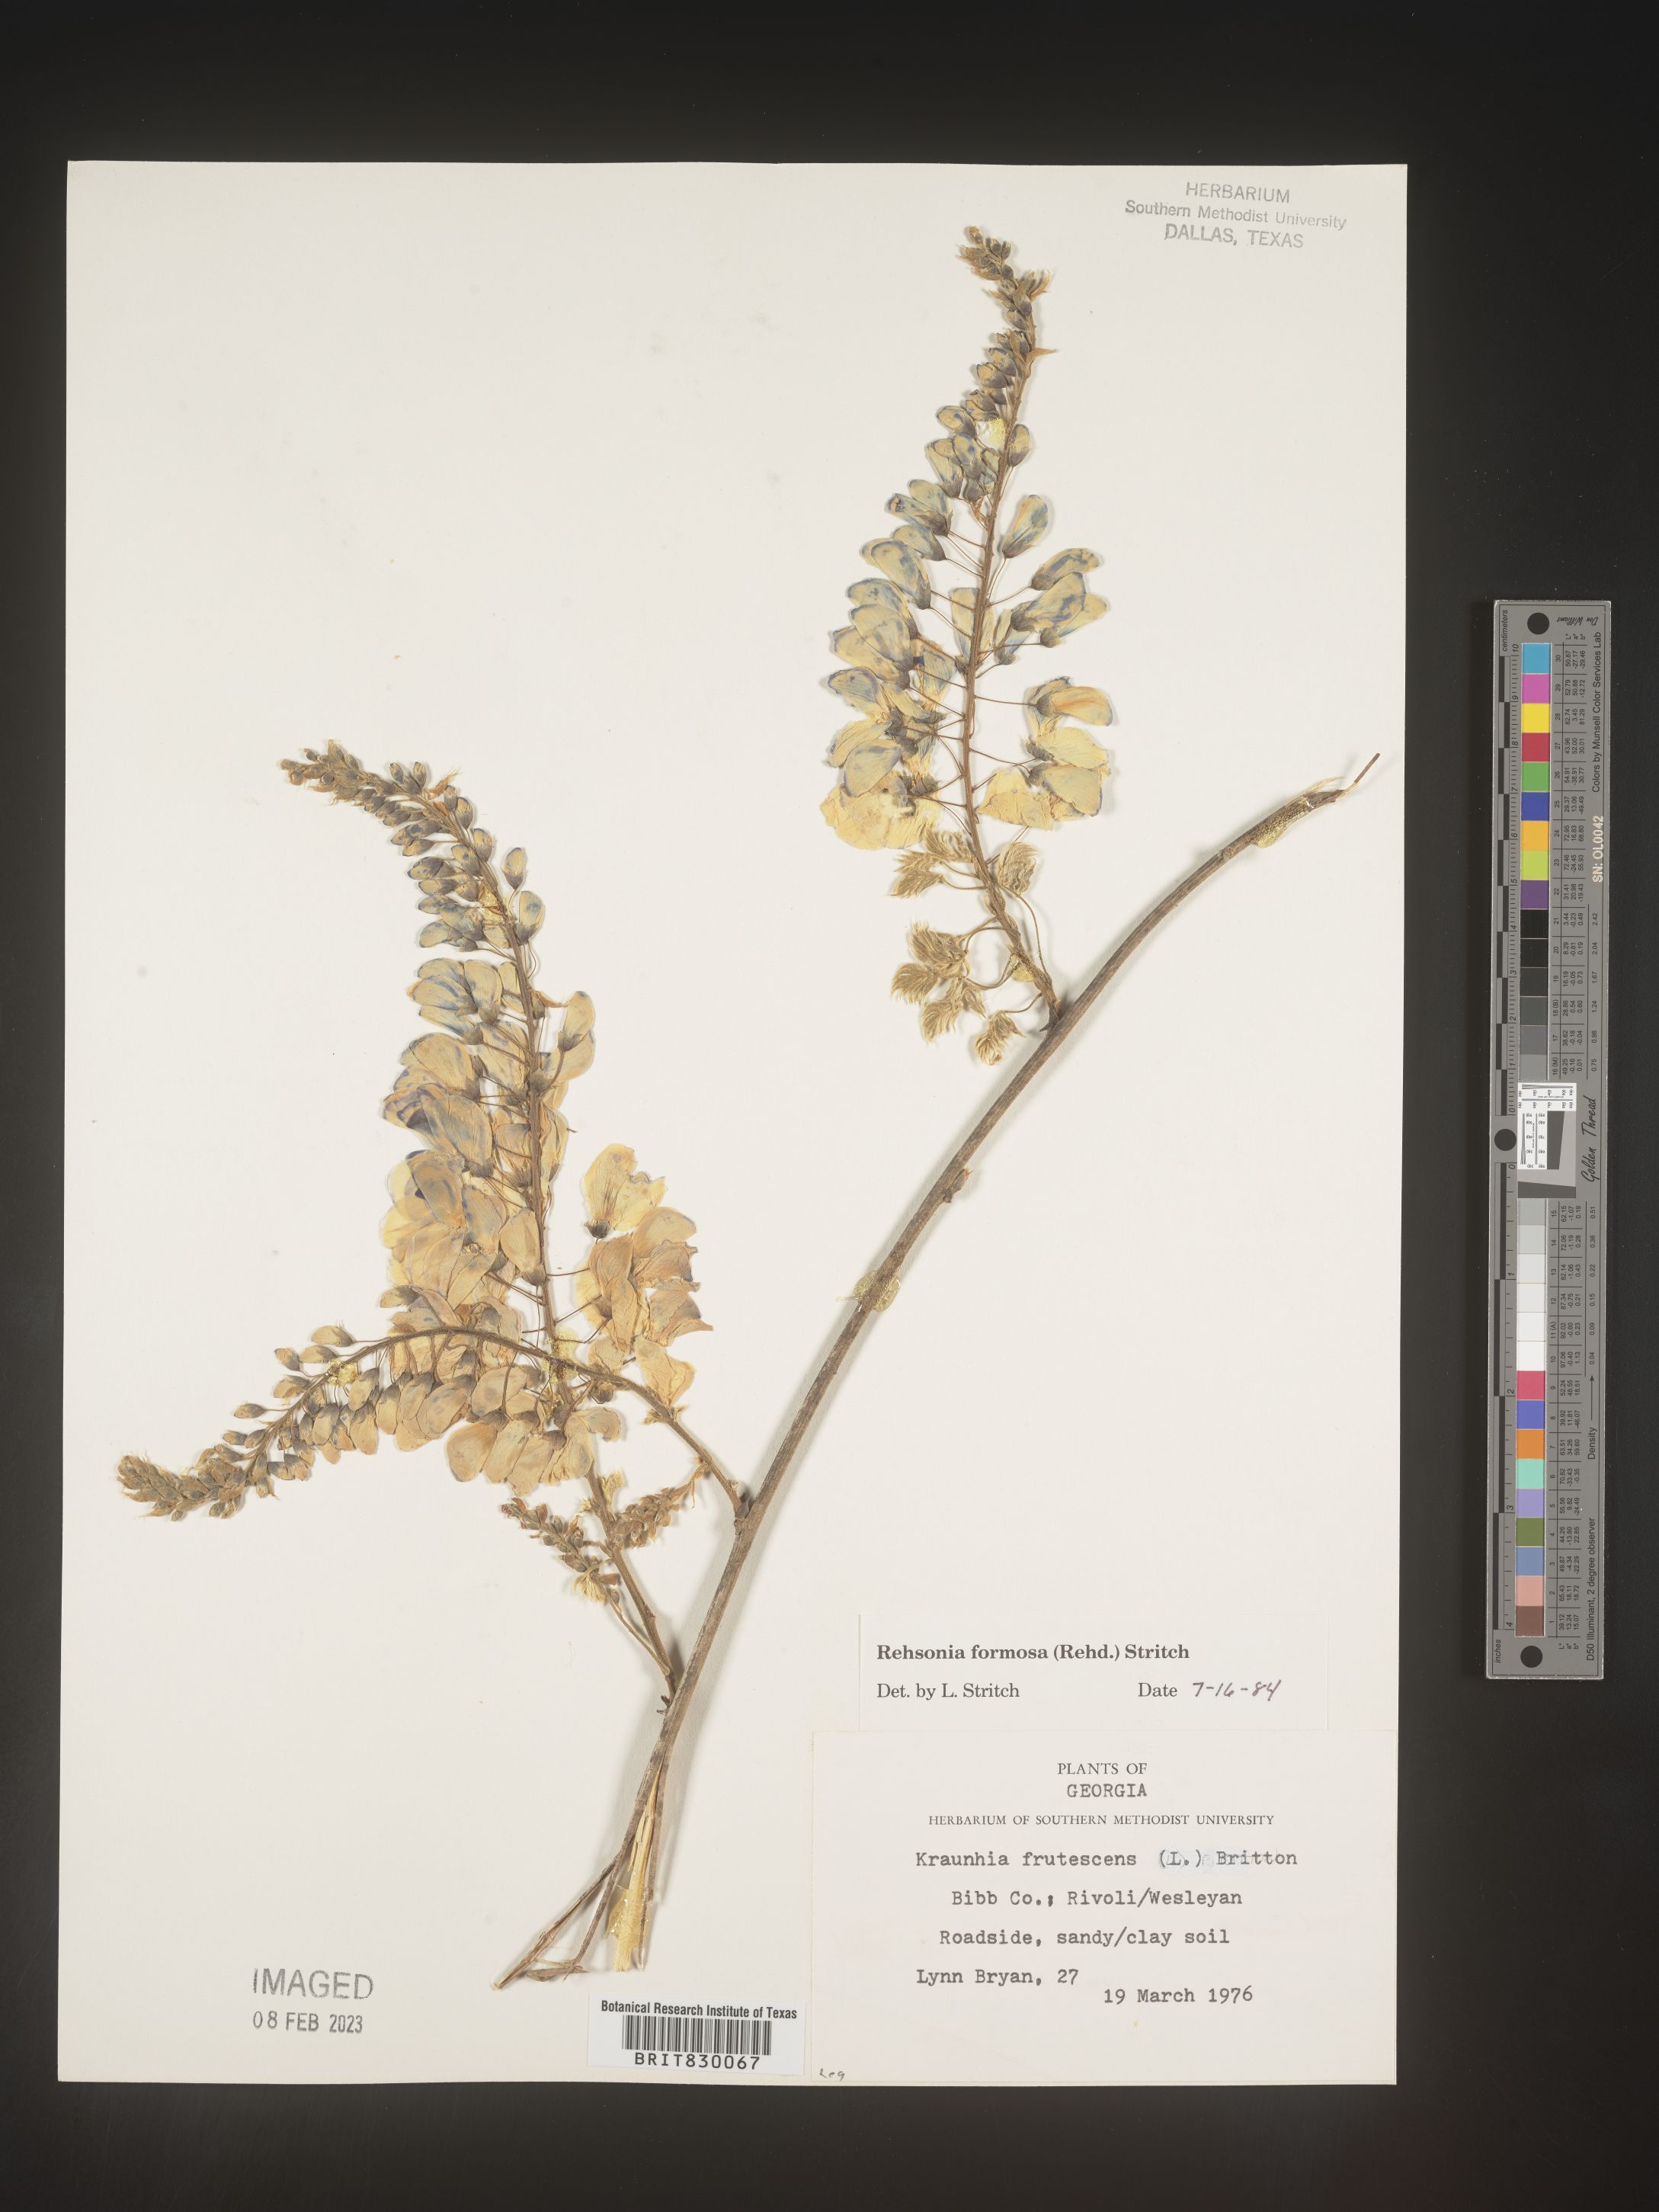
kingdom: Plantae
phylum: Tracheophyta
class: Magnoliopsida
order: Fabales
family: Fabaceae
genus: Wisteria
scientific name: Wisteria
